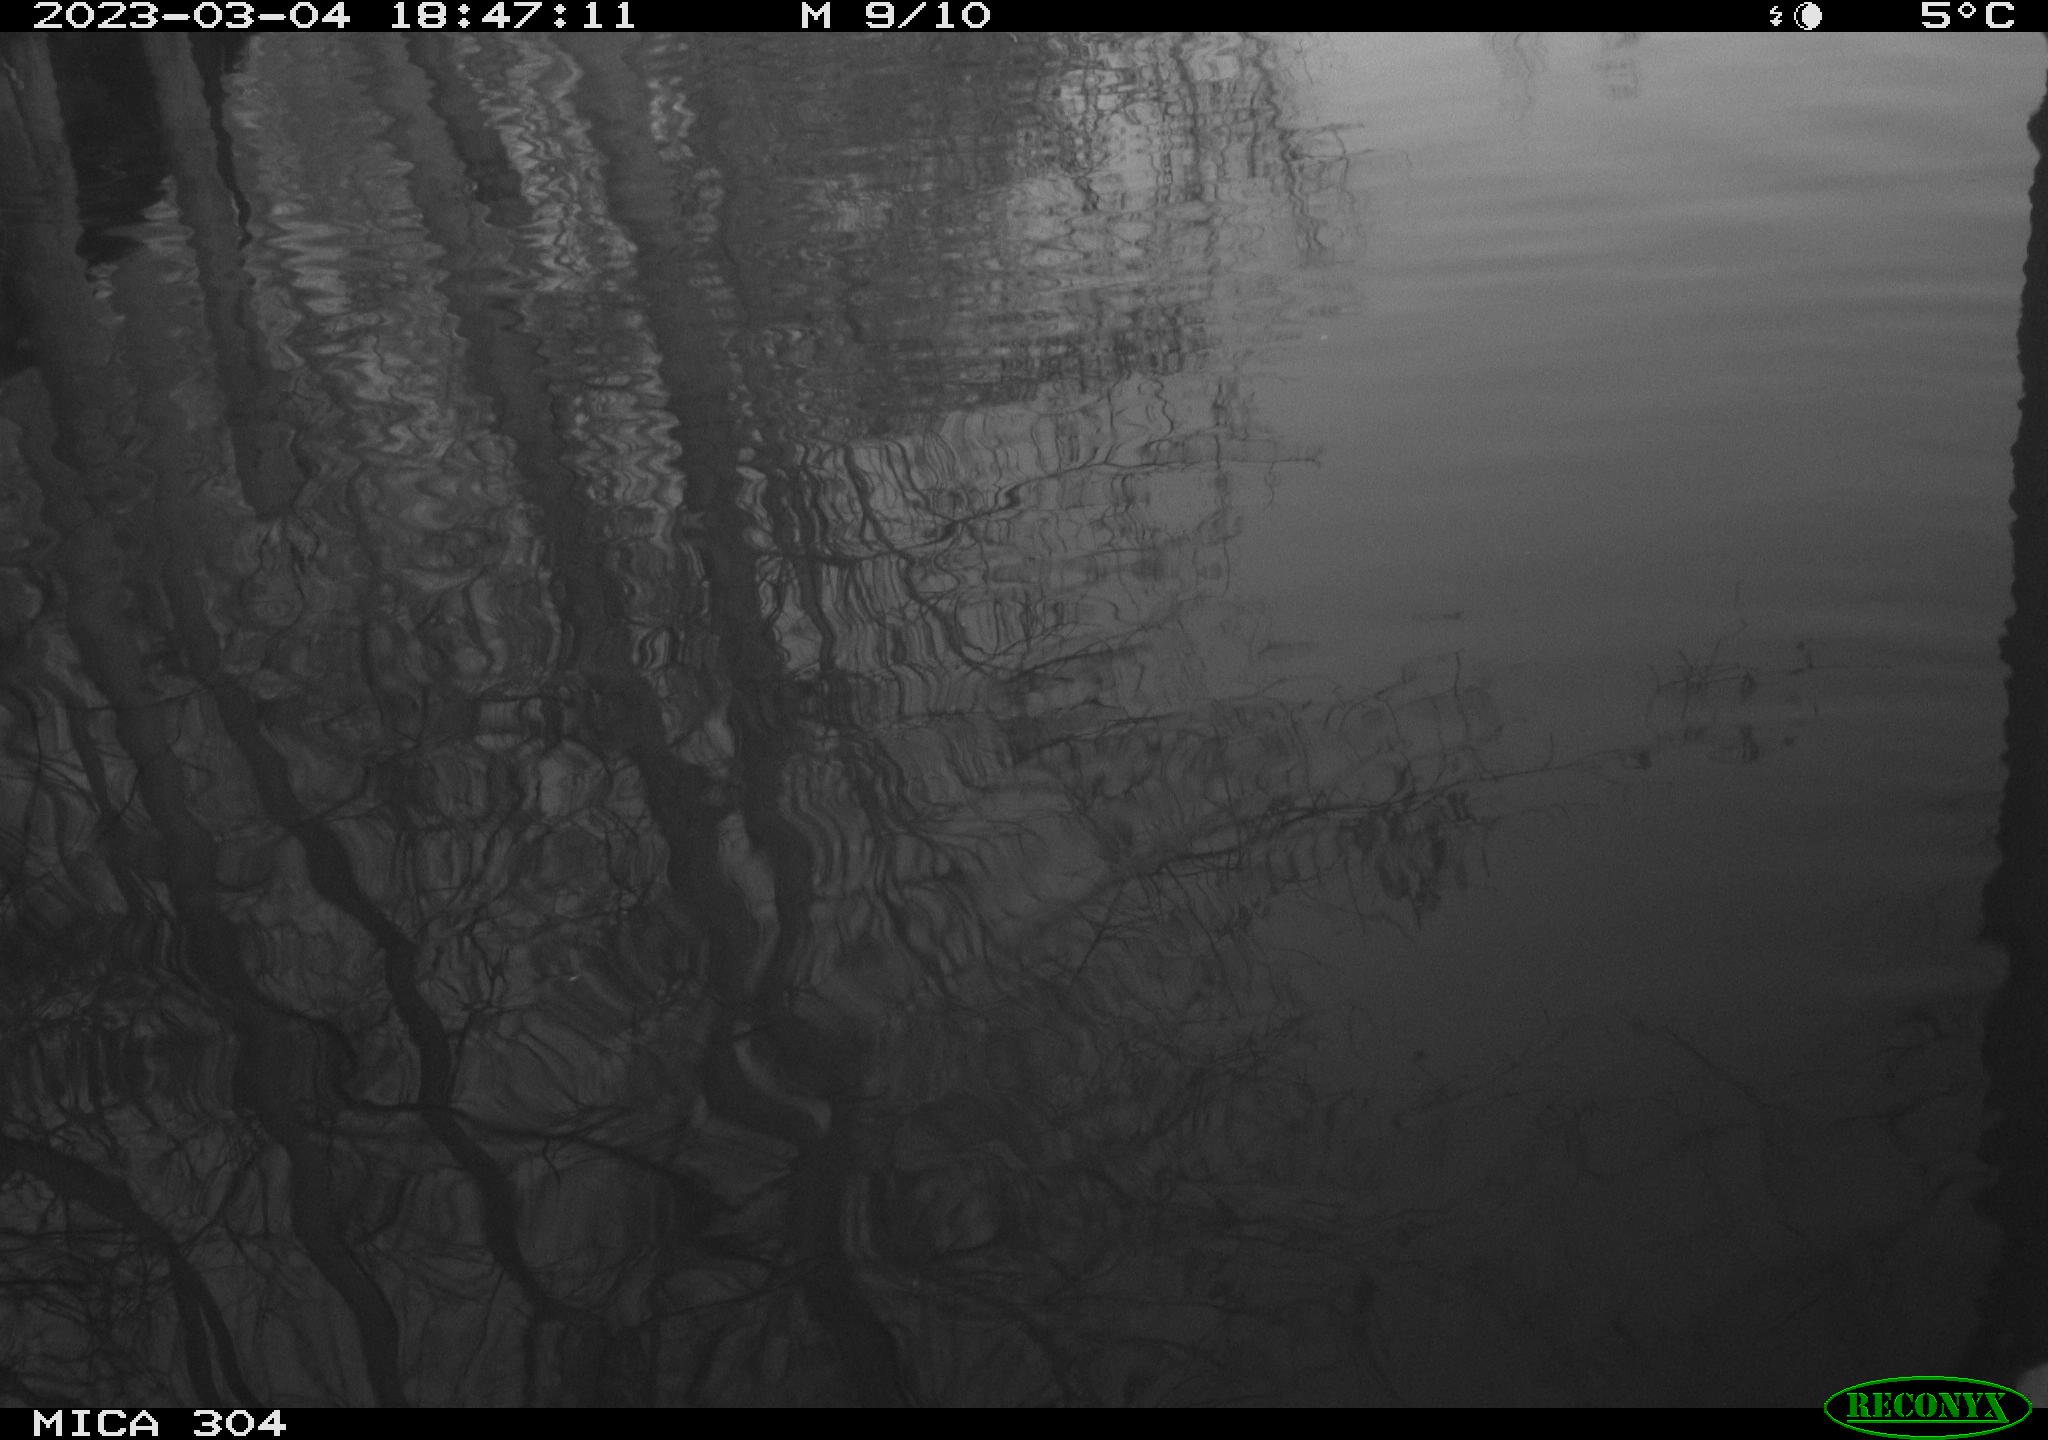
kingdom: Animalia
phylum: Chordata
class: Aves
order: Anseriformes
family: Anatidae
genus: Anas
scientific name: Anas
